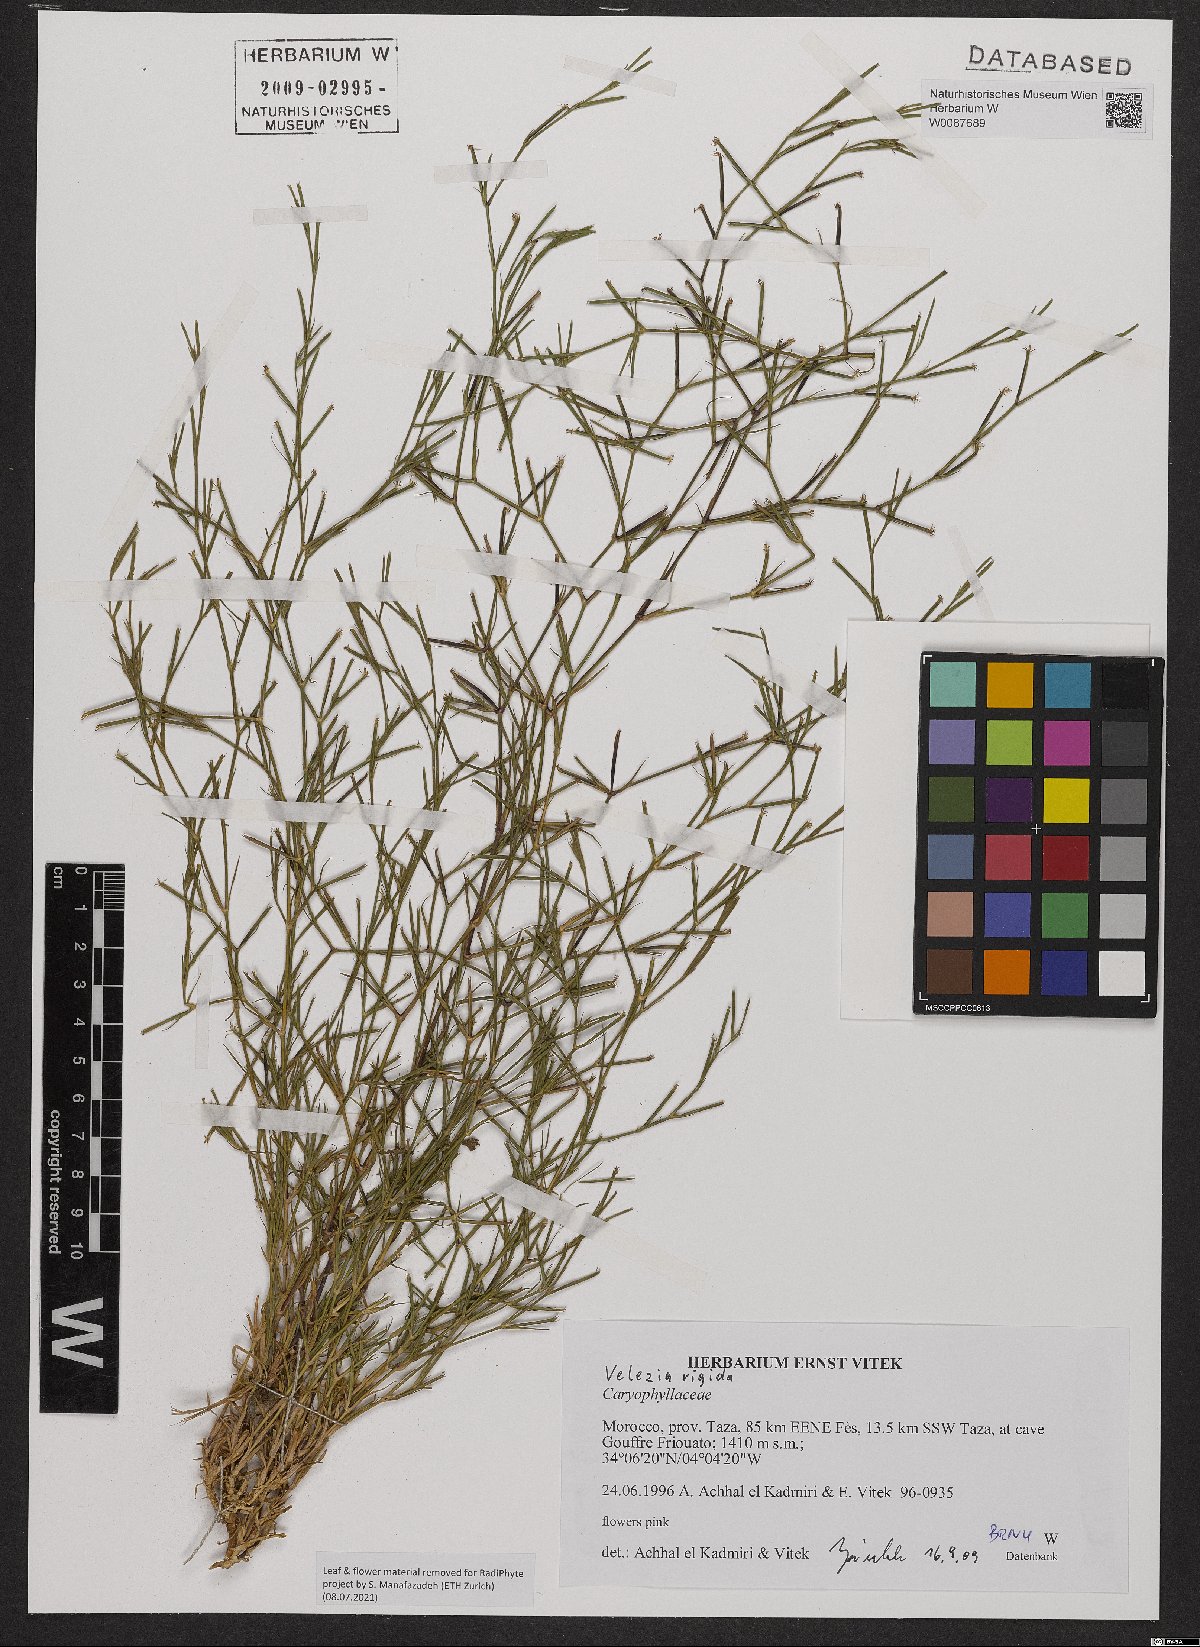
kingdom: Plantae
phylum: Tracheophyta
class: Magnoliopsida
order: Caryophyllales
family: Caryophyllaceae
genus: Dianthus
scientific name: Dianthus nudiflorus
